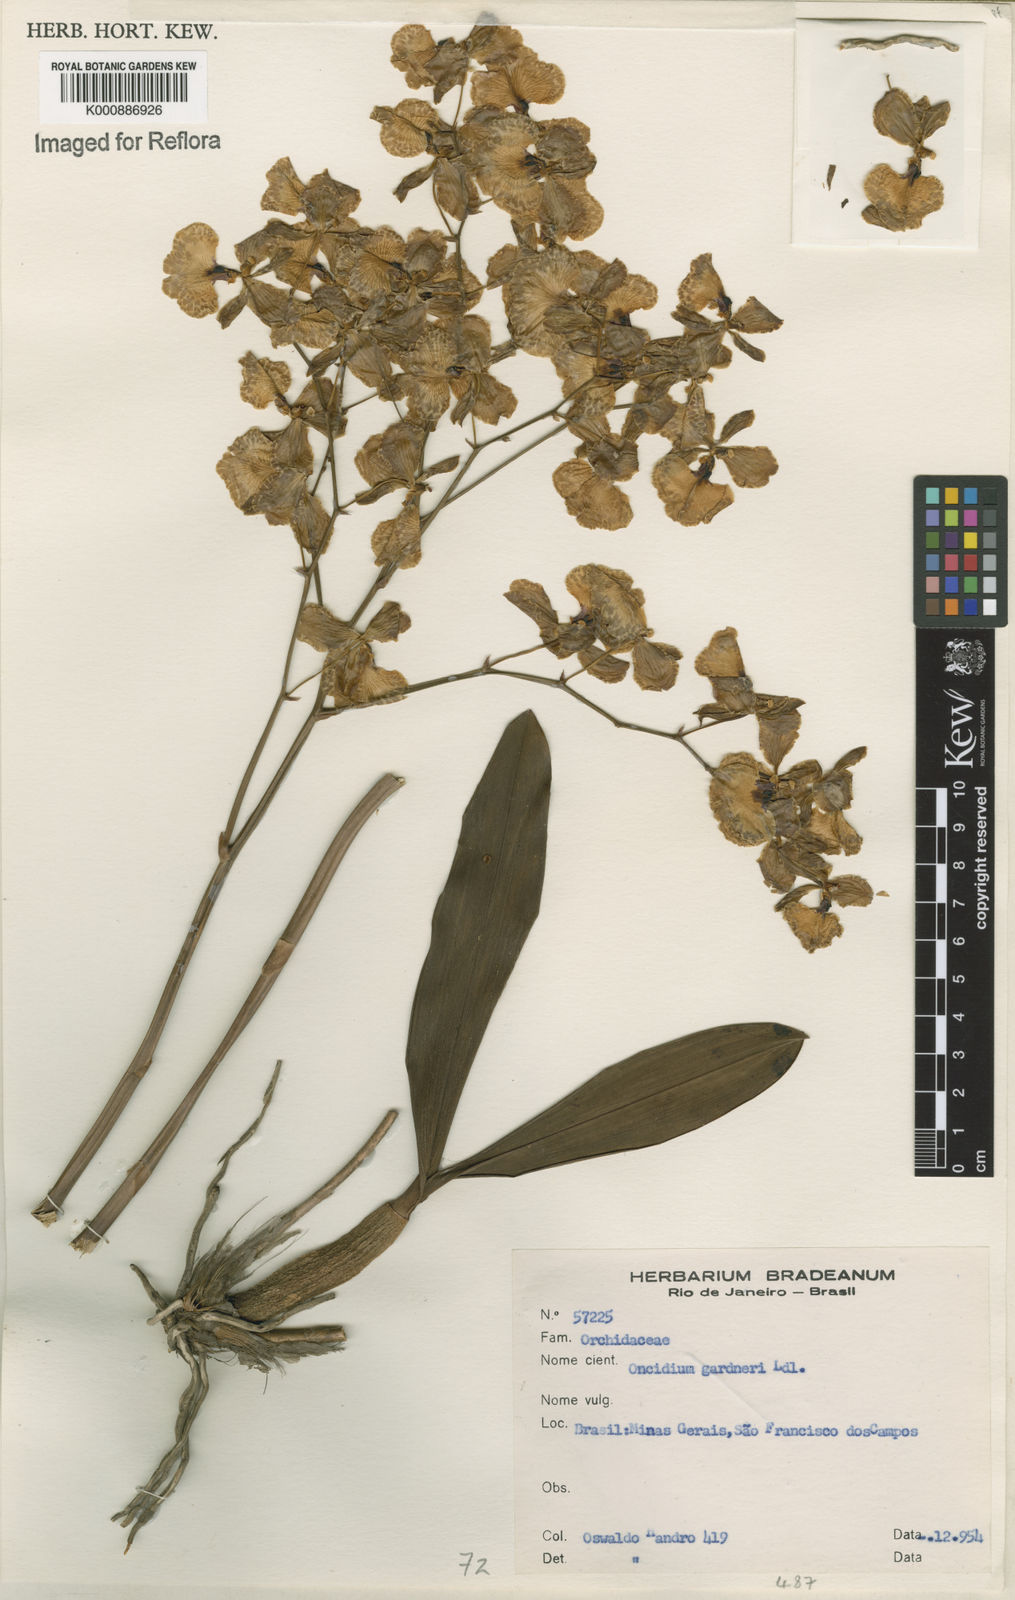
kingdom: Plantae
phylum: Tracheophyta
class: Liliopsida
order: Asparagales
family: Orchidaceae
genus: Gomesa
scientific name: Gomesa gardneri
